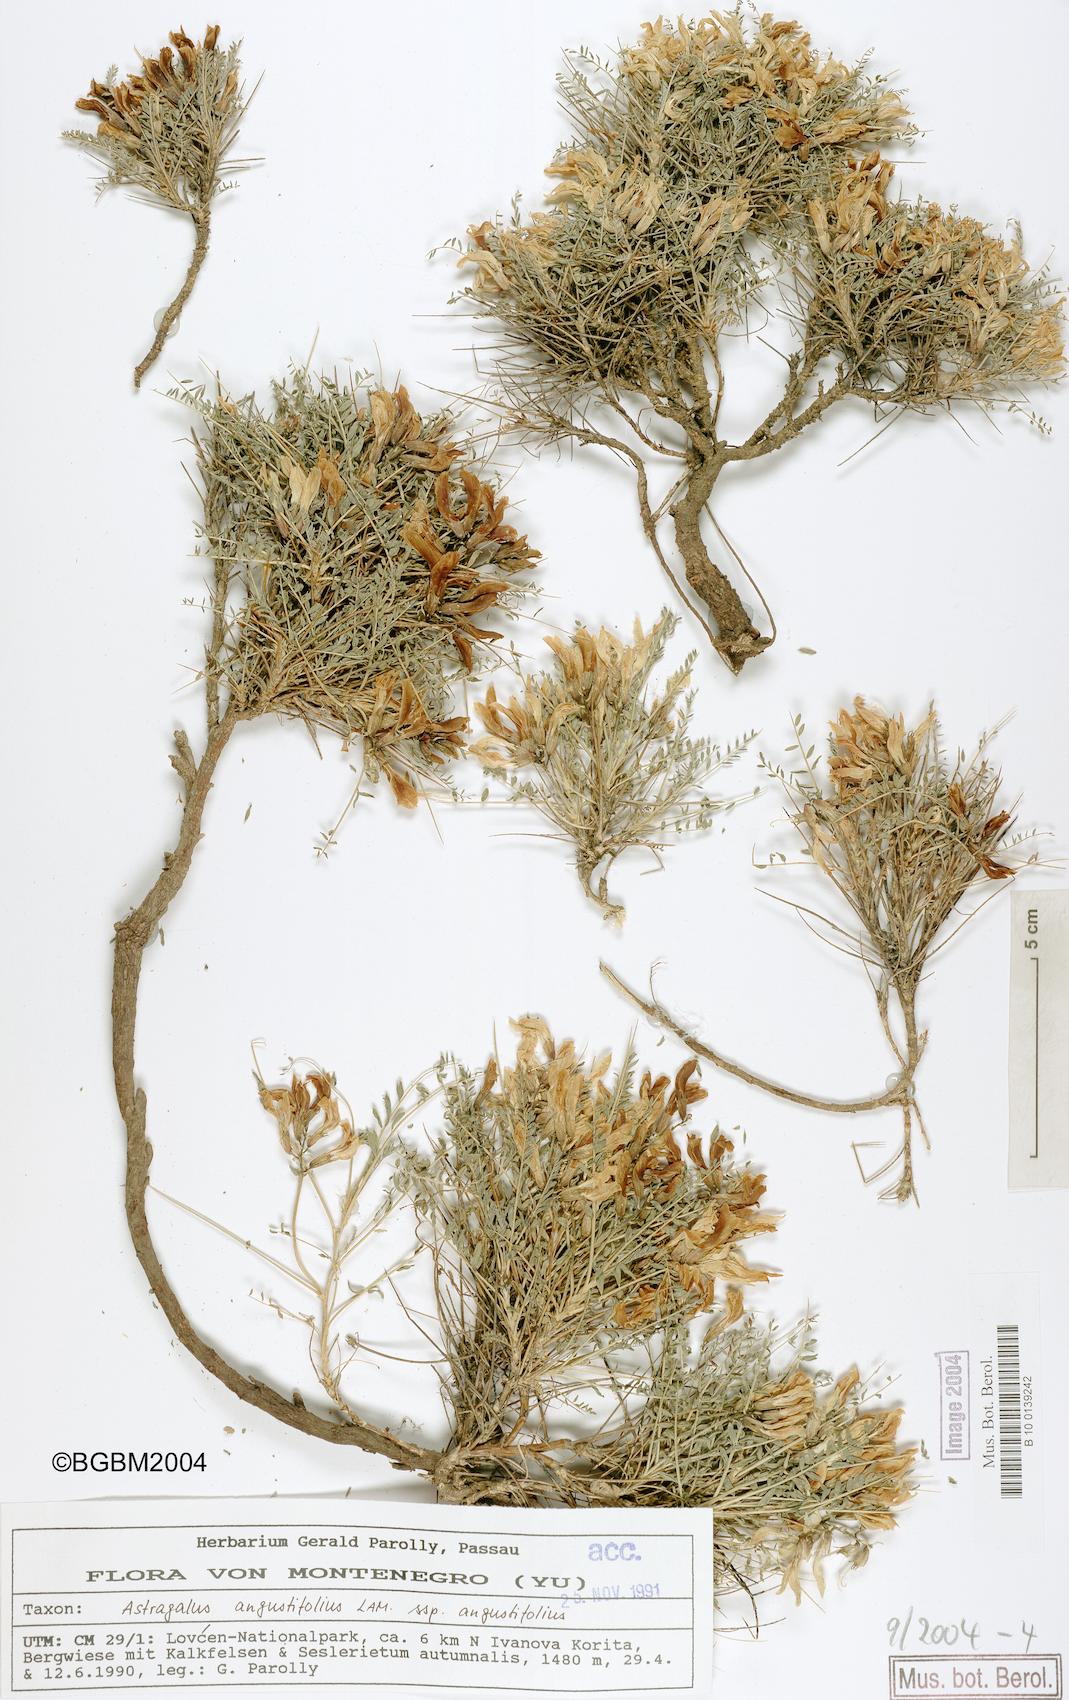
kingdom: Plantae
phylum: Tracheophyta
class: Magnoliopsida
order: Fabales
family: Fabaceae
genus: Astragalus
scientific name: Astragalus angustifolius
